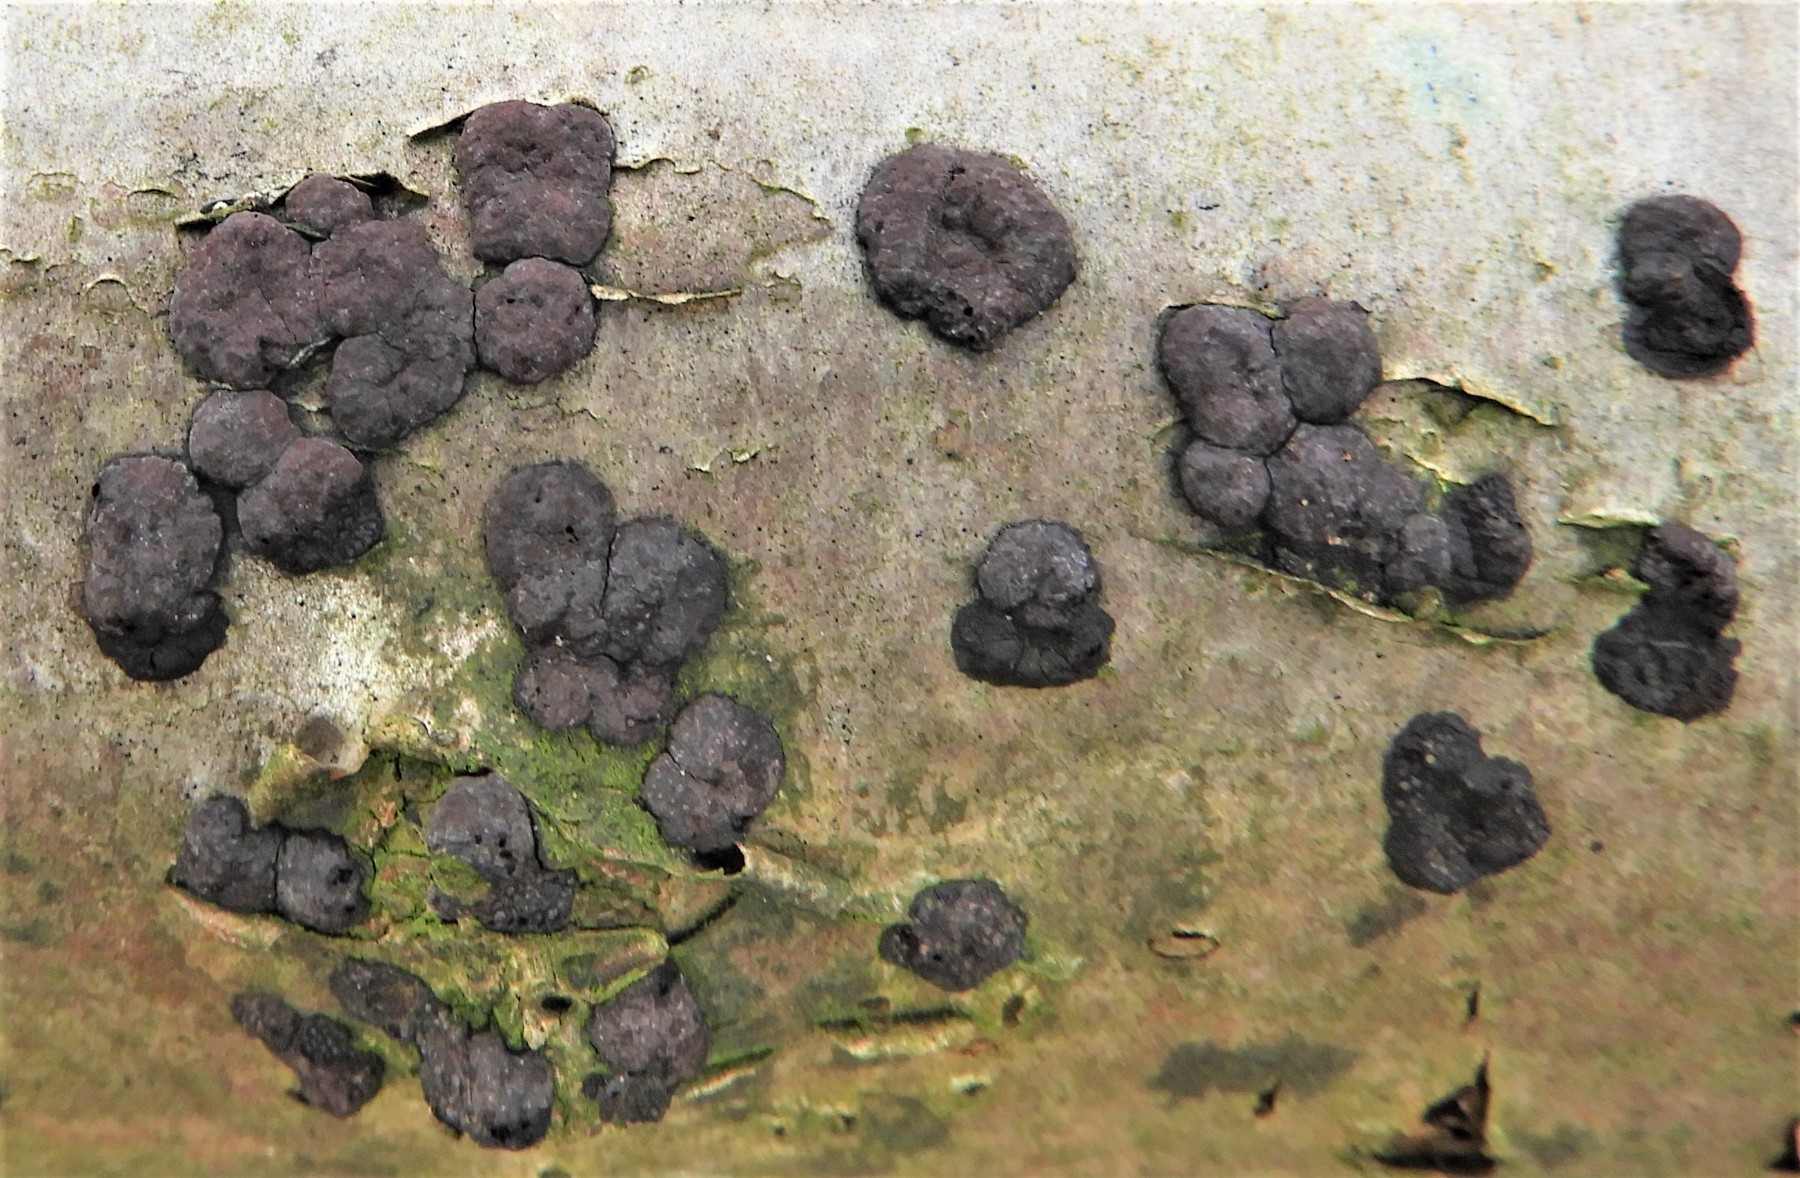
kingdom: Fungi
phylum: Ascomycota
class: Sordariomycetes
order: Xylariales
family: Hypoxylaceae
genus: Hypoxylon
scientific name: Hypoxylon fuscum
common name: kegleformet kulbær
